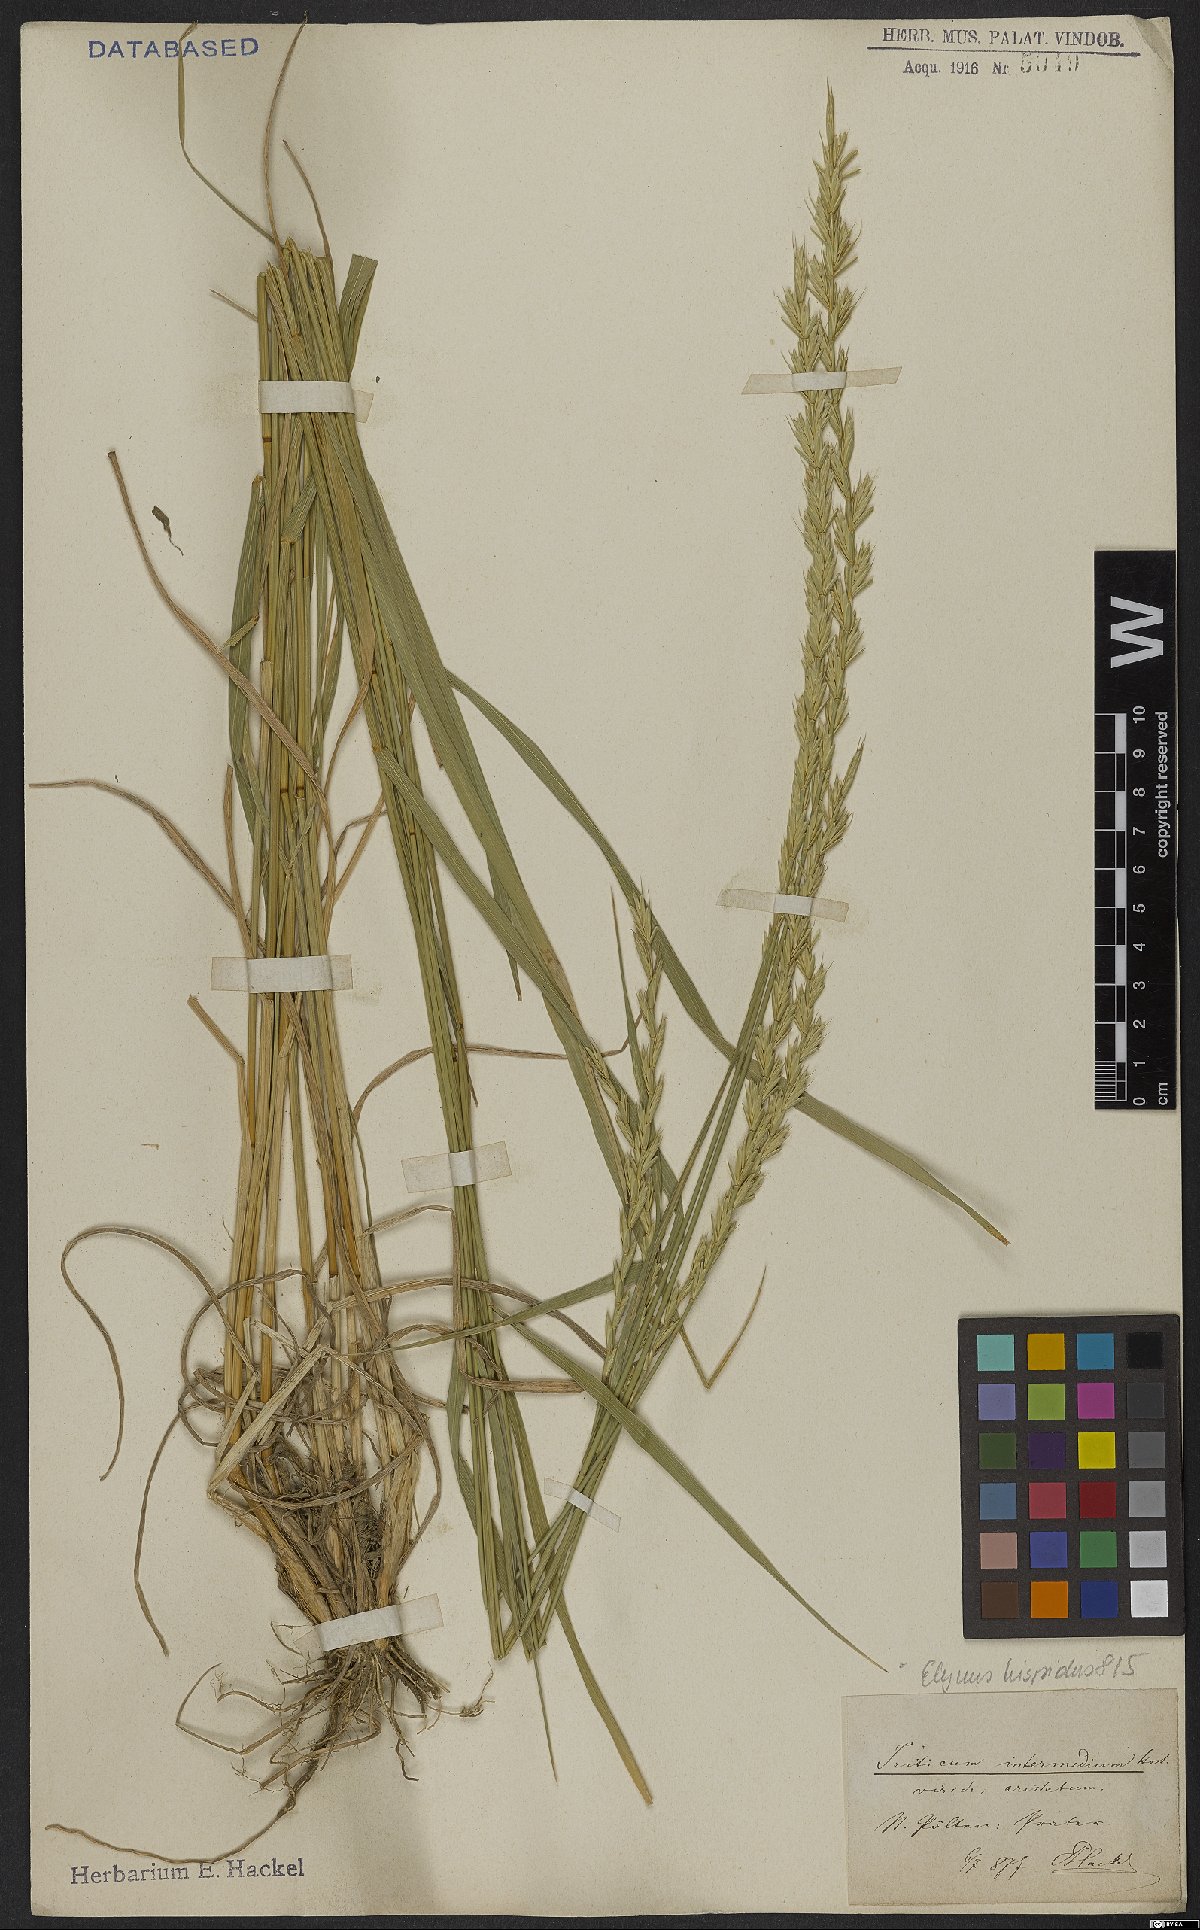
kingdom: Plantae
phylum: Tracheophyta
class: Liliopsida
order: Poales
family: Poaceae
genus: Thinopyrum
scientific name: Thinopyrum intermedium
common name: Intermediate wheatgrass
